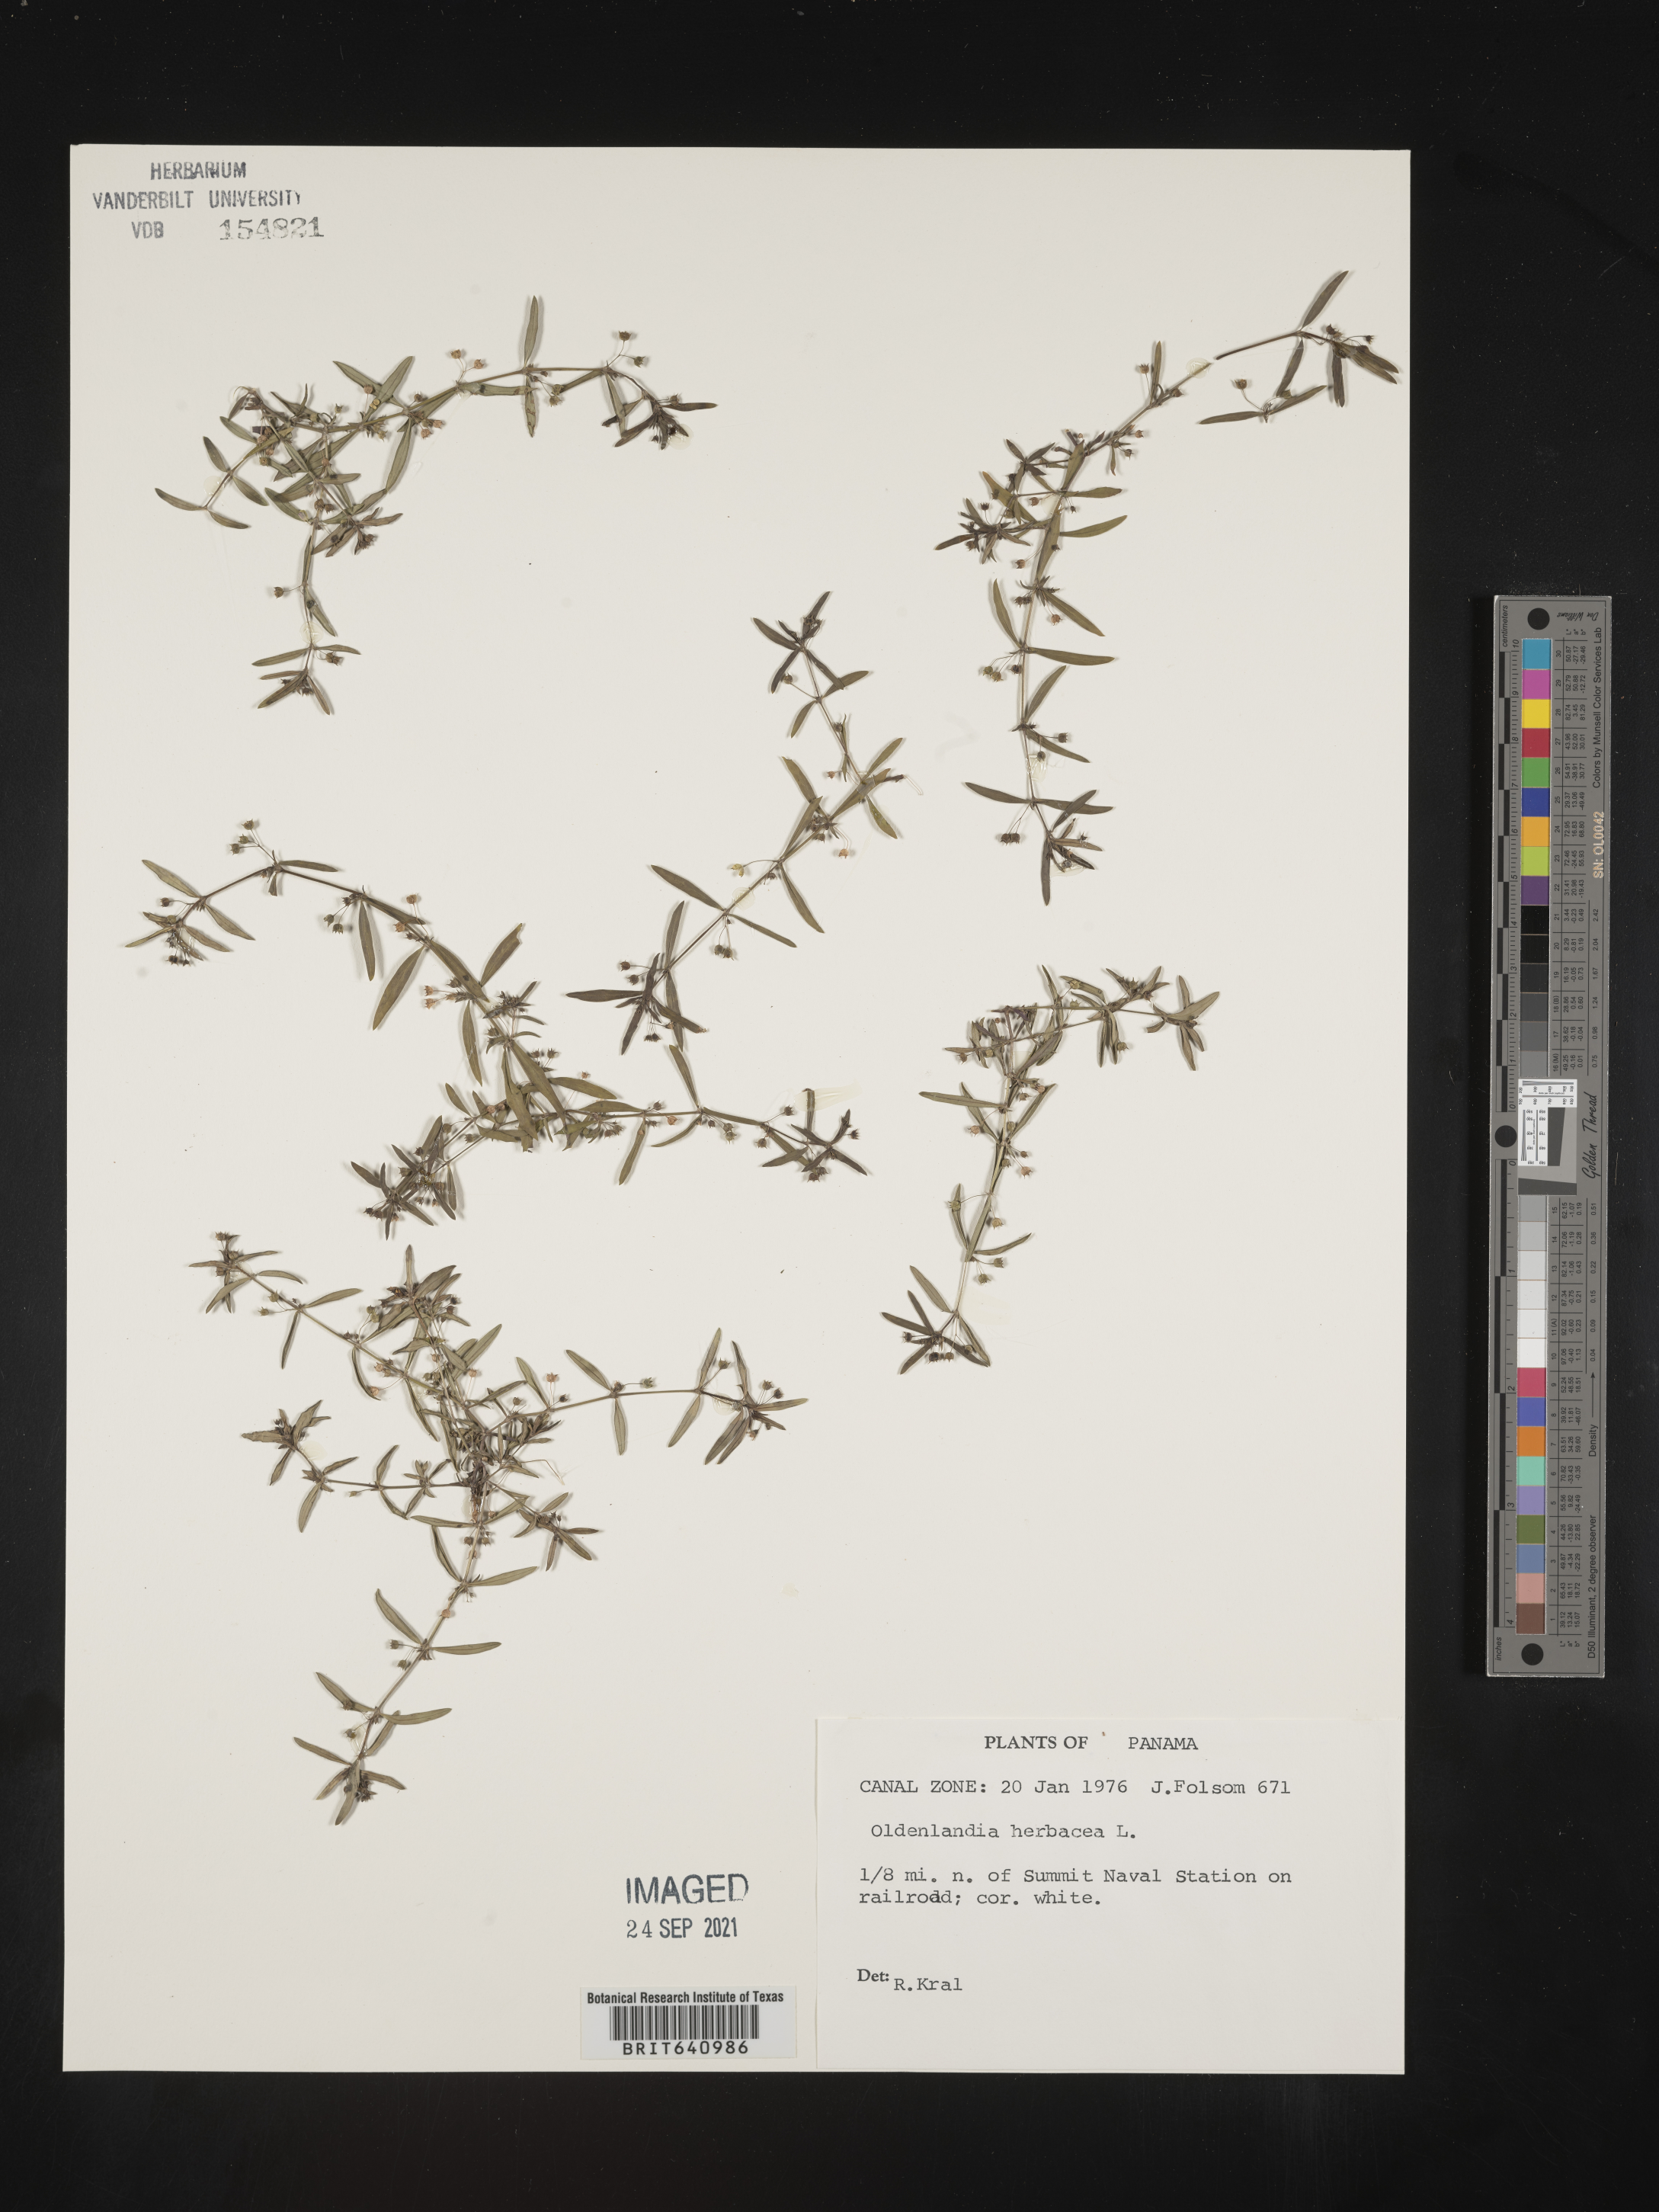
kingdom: Plantae
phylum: Tracheophyta
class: Magnoliopsida
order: Gentianales
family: Rubiaceae
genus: Oldenlandia
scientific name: Oldenlandia
